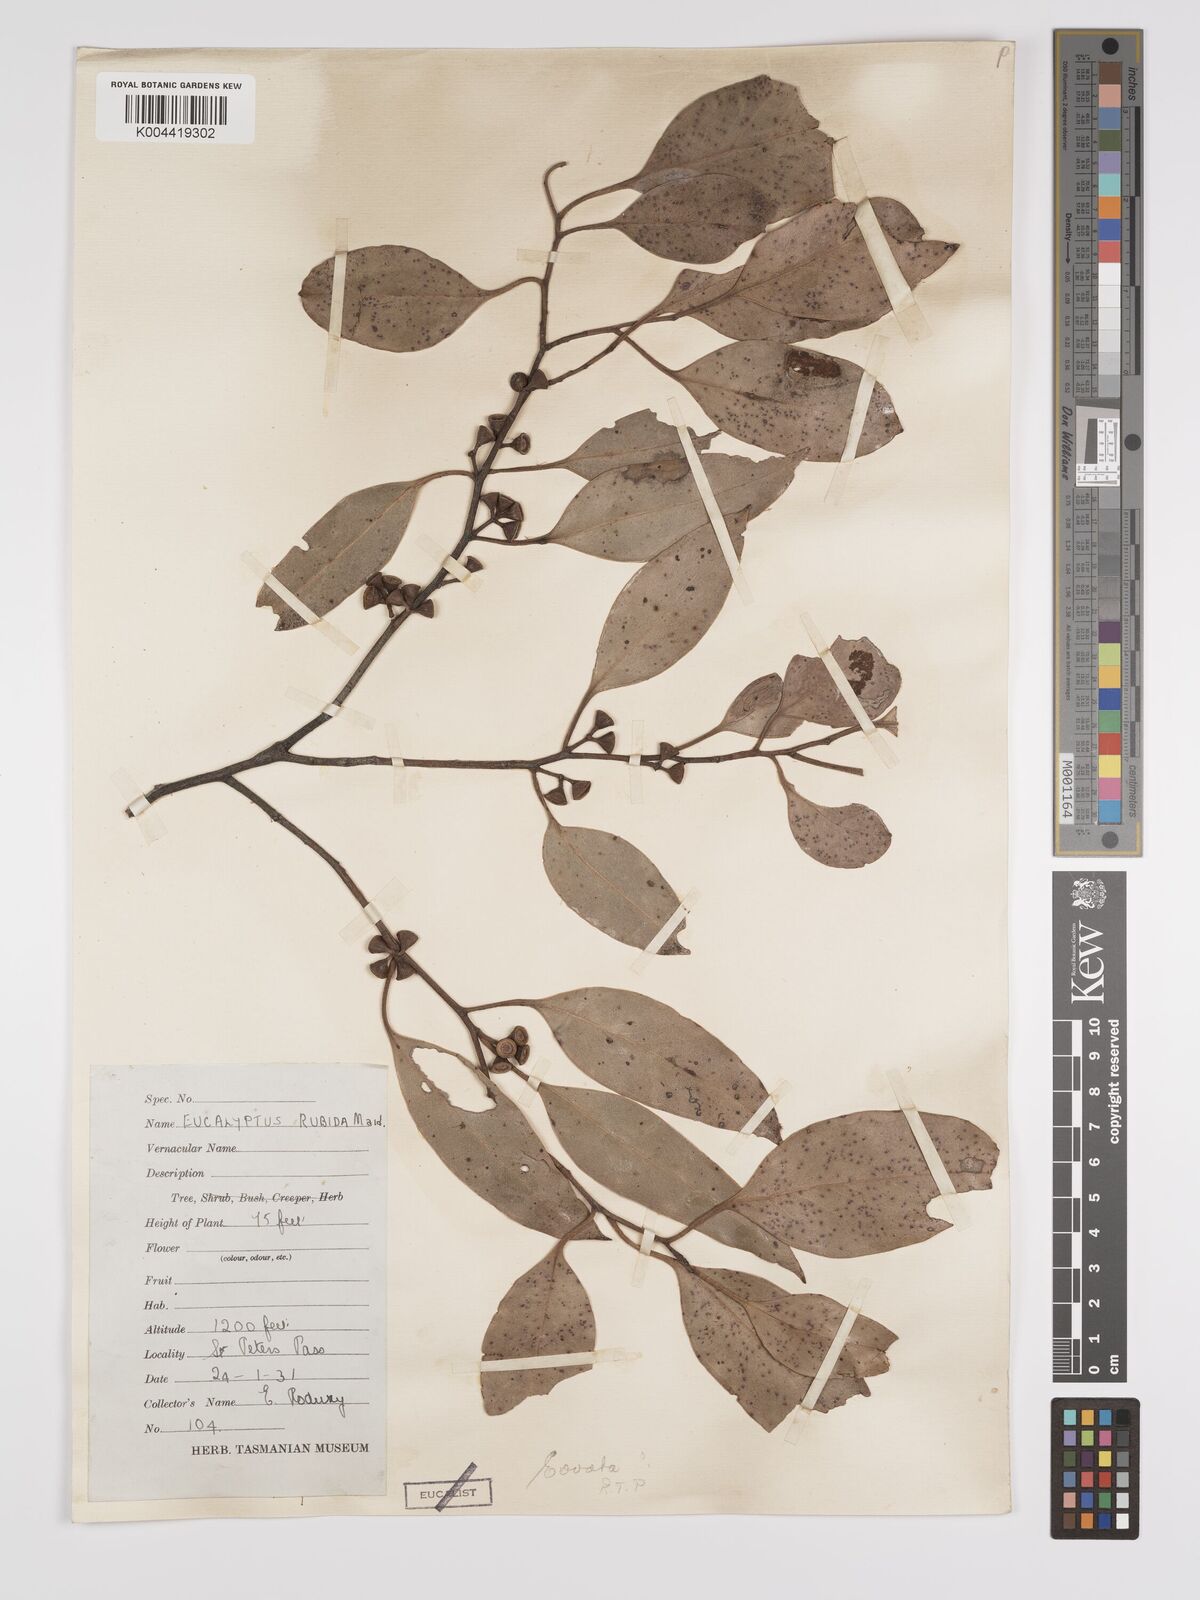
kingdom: Plantae
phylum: Tracheophyta
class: Magnoliopsida
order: Myrtales
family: Myrtaceae
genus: Eucalyptus
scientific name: Eucalyptus ovata
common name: Black-gum
